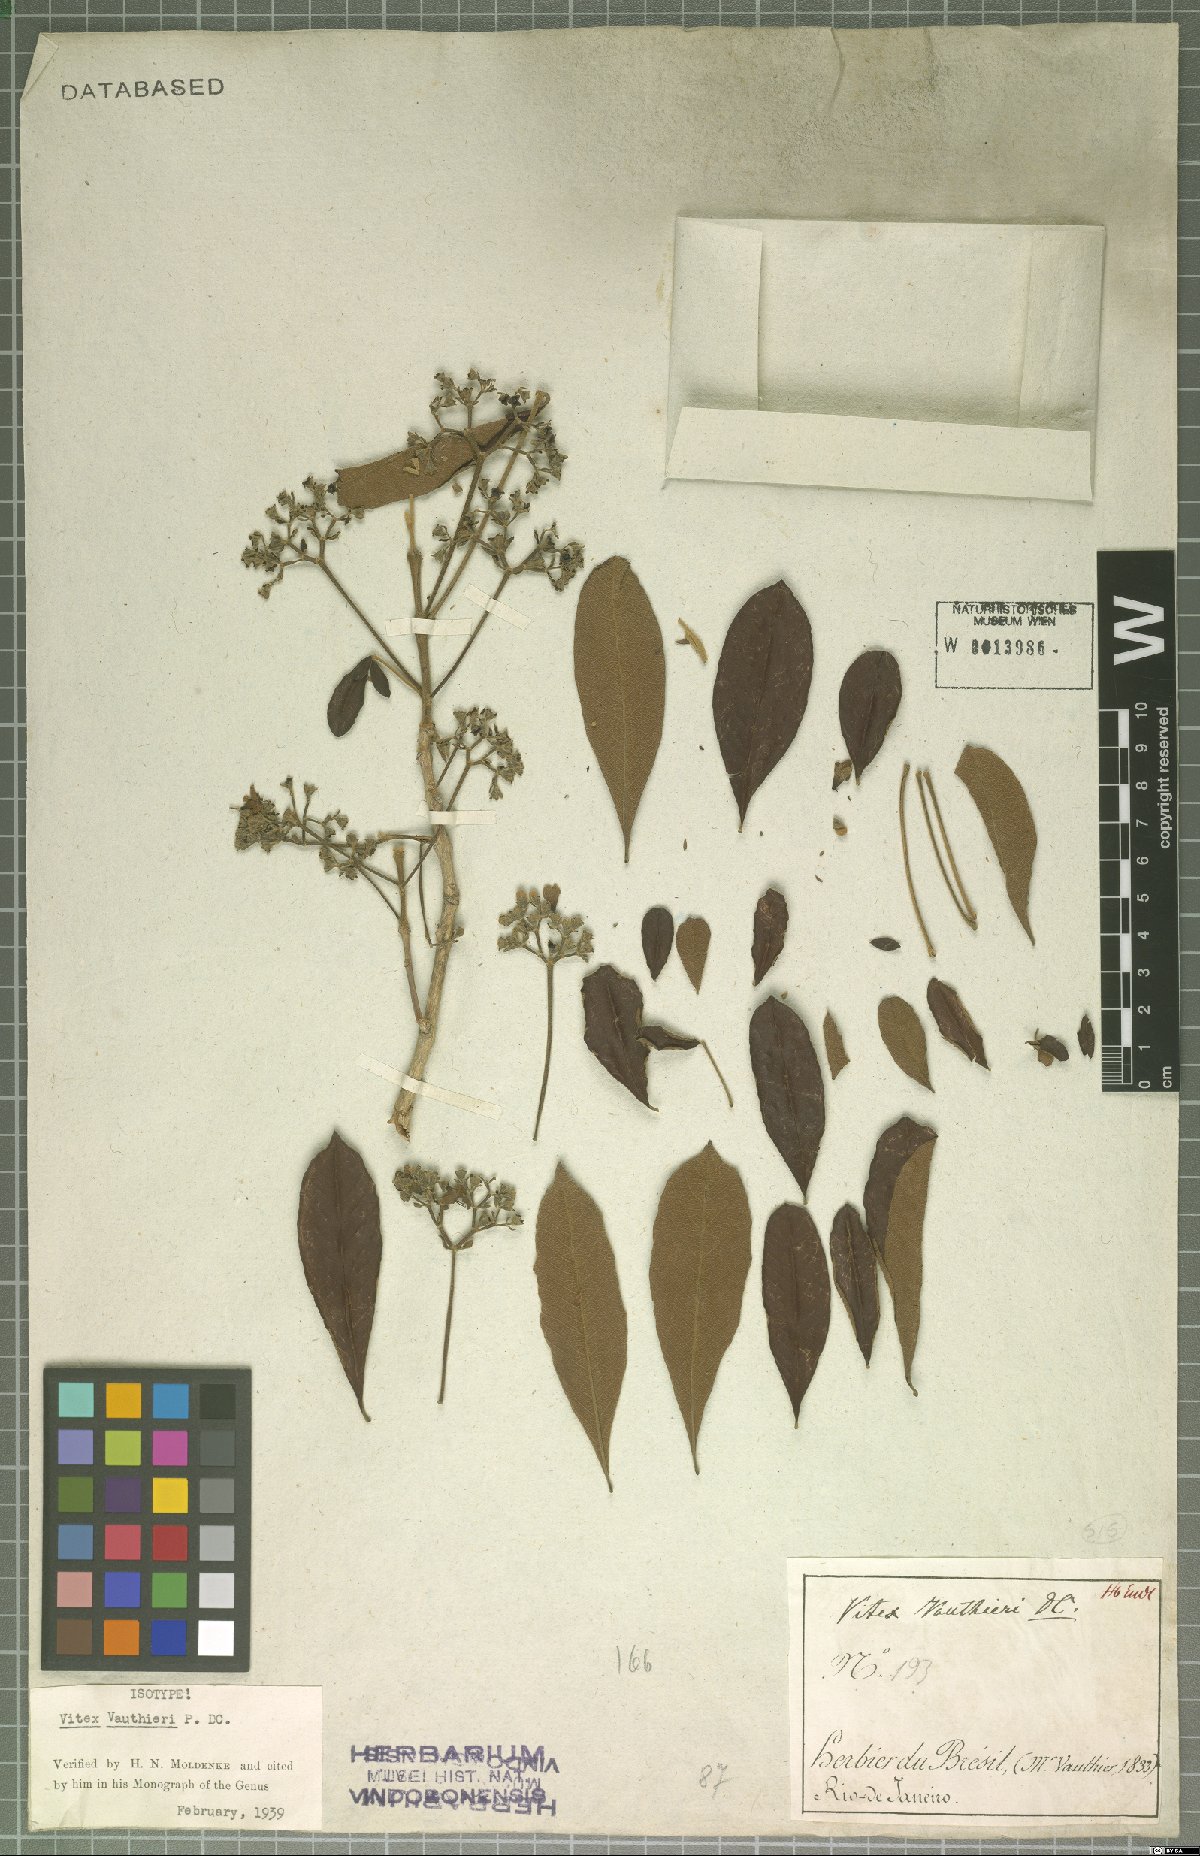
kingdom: Plantae
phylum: Tracheophyta
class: Magnoliopsida
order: Lamiales
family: Verbenaceae
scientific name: Verbenaceae
